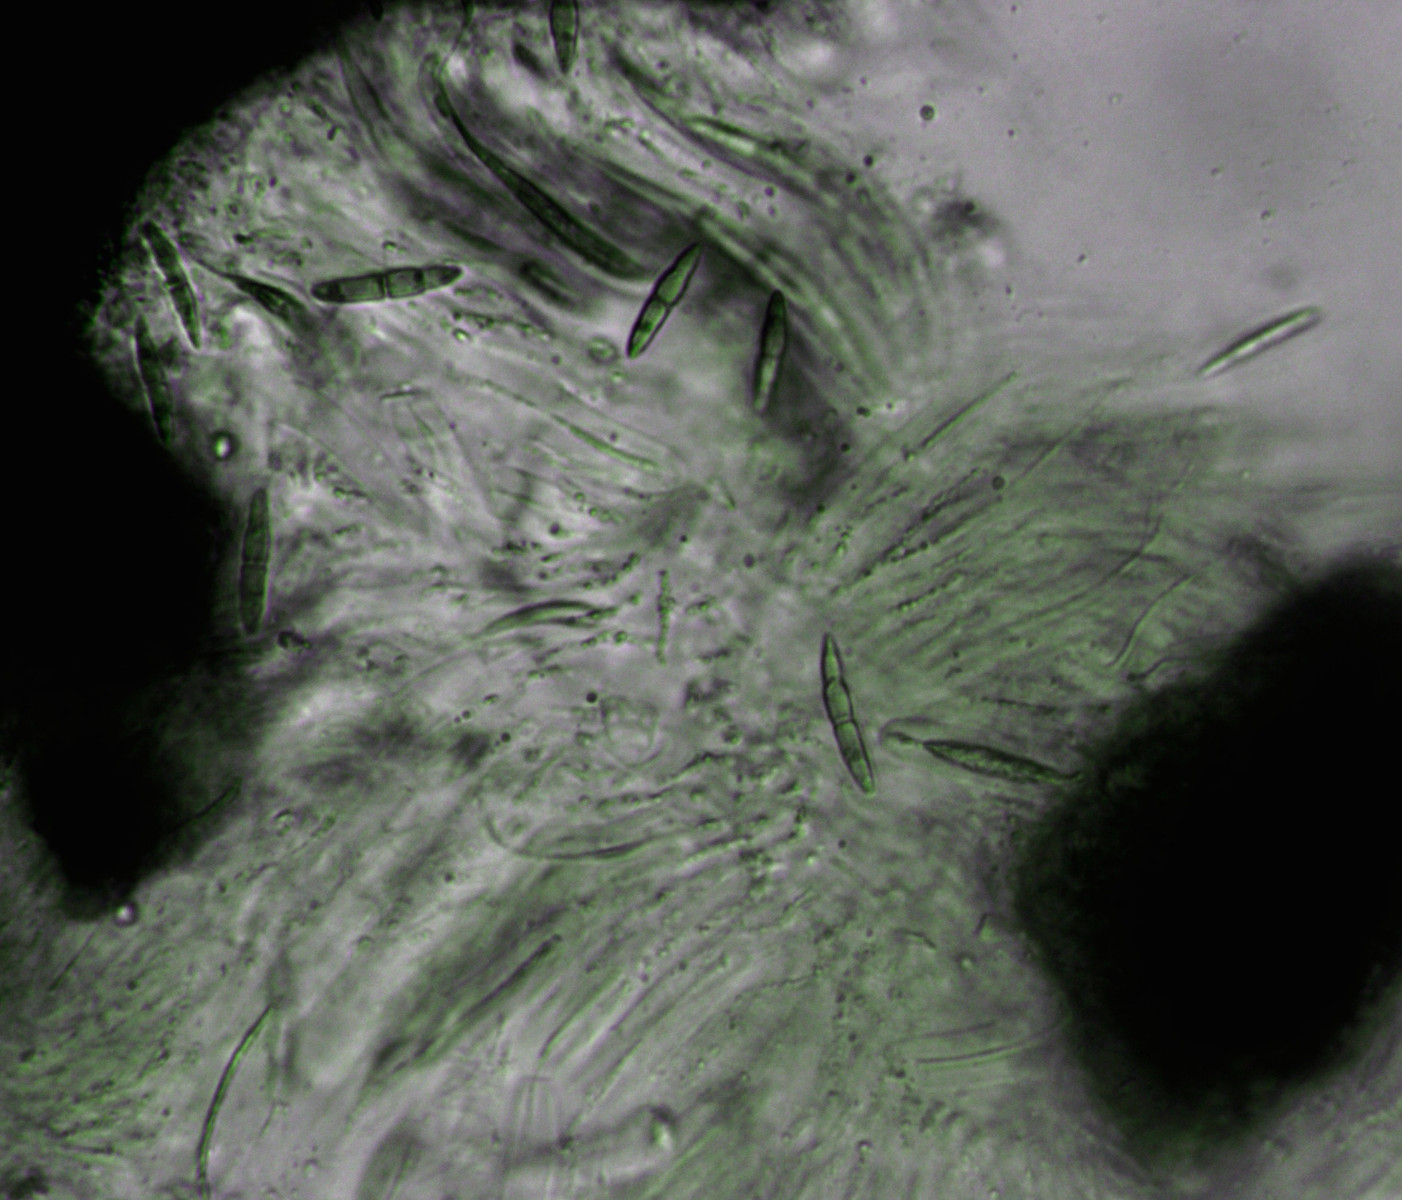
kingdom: Fungi
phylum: Ascomycota
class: Dothideomycetes
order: Pleosporales
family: Lentitheciaceae
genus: Setoseptoria
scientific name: Setoseptoria arundinacea
